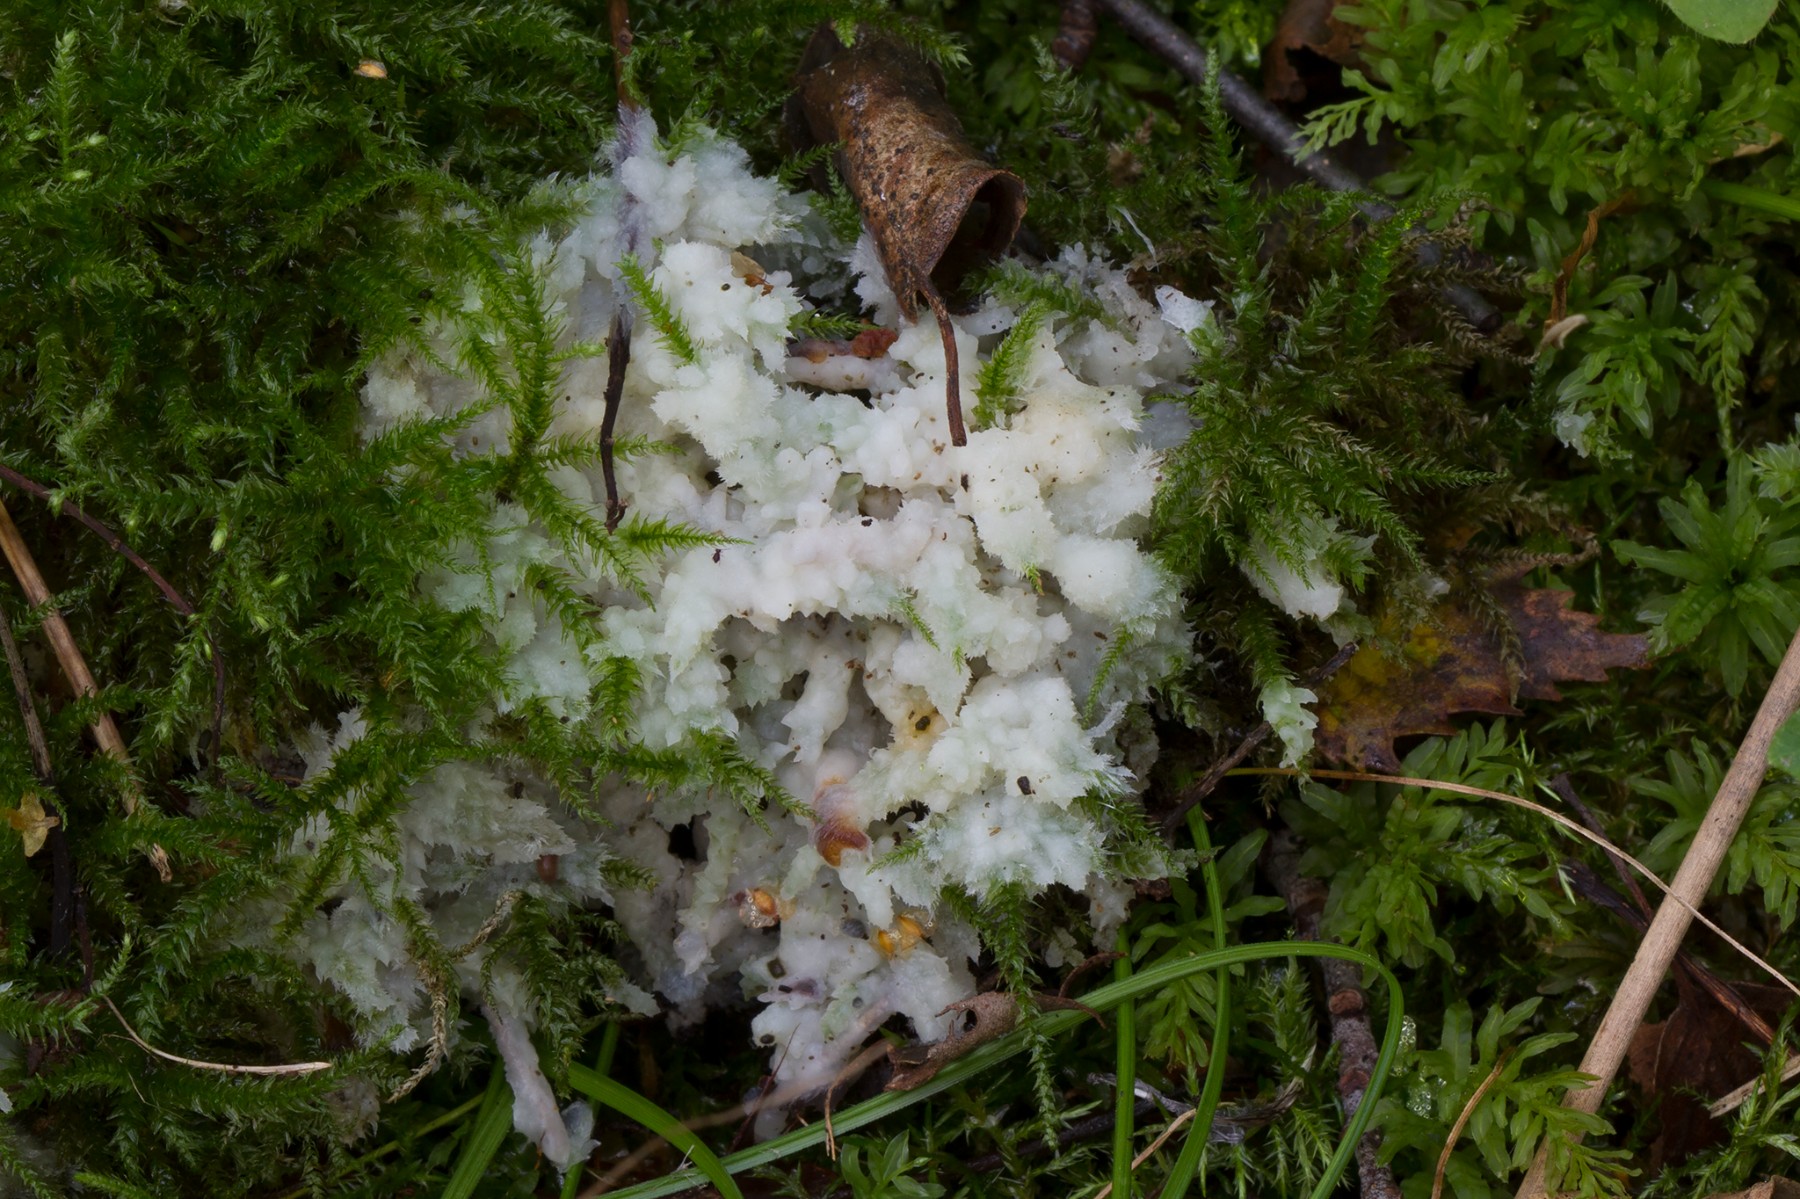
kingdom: Fungi
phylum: Basidiomycota
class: Agaricomycetes
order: Sebacinales
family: Sebacinaceae
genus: Sebacina
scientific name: Sebacina incrustans
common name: krybende bævretalg
